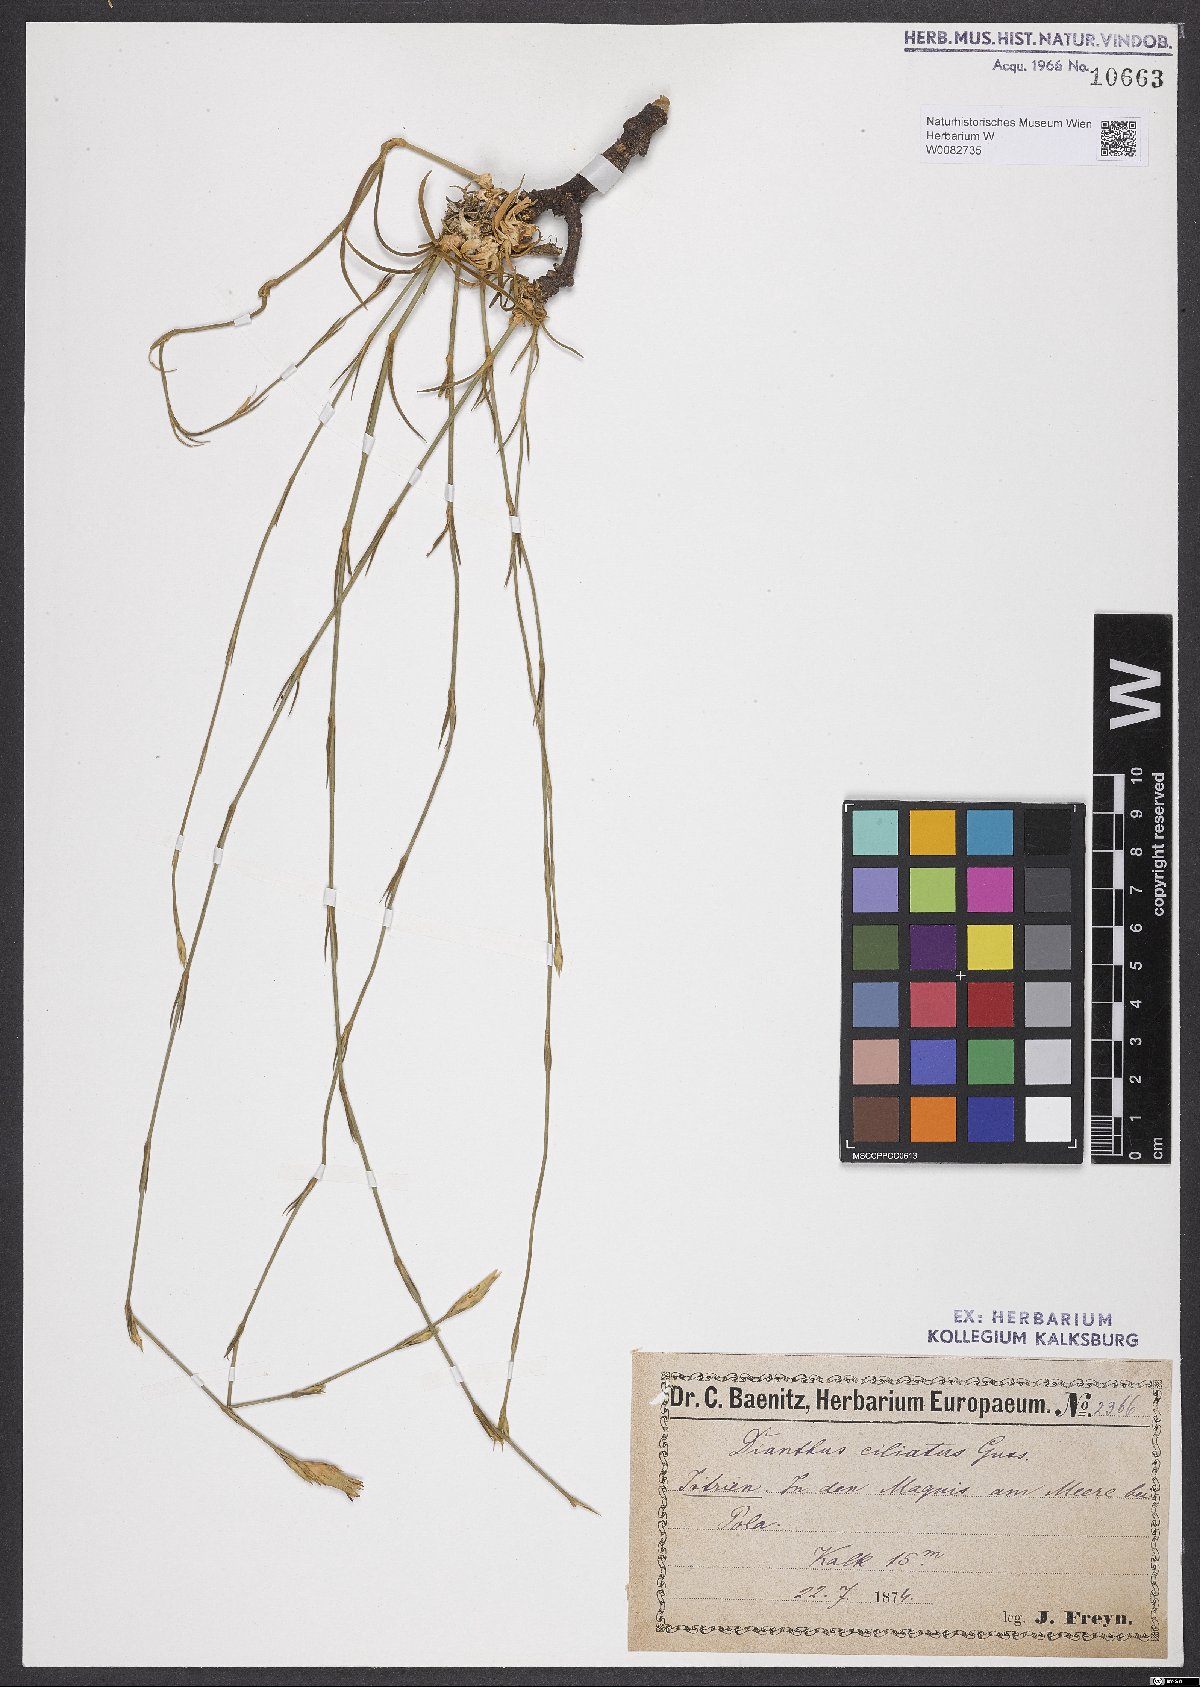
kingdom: Plantae
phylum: Tracheophyta
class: Magnoliopsida
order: Caryophyllales
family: Caryophyllaceae
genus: Dianthus
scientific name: Dianthus ciliatus
